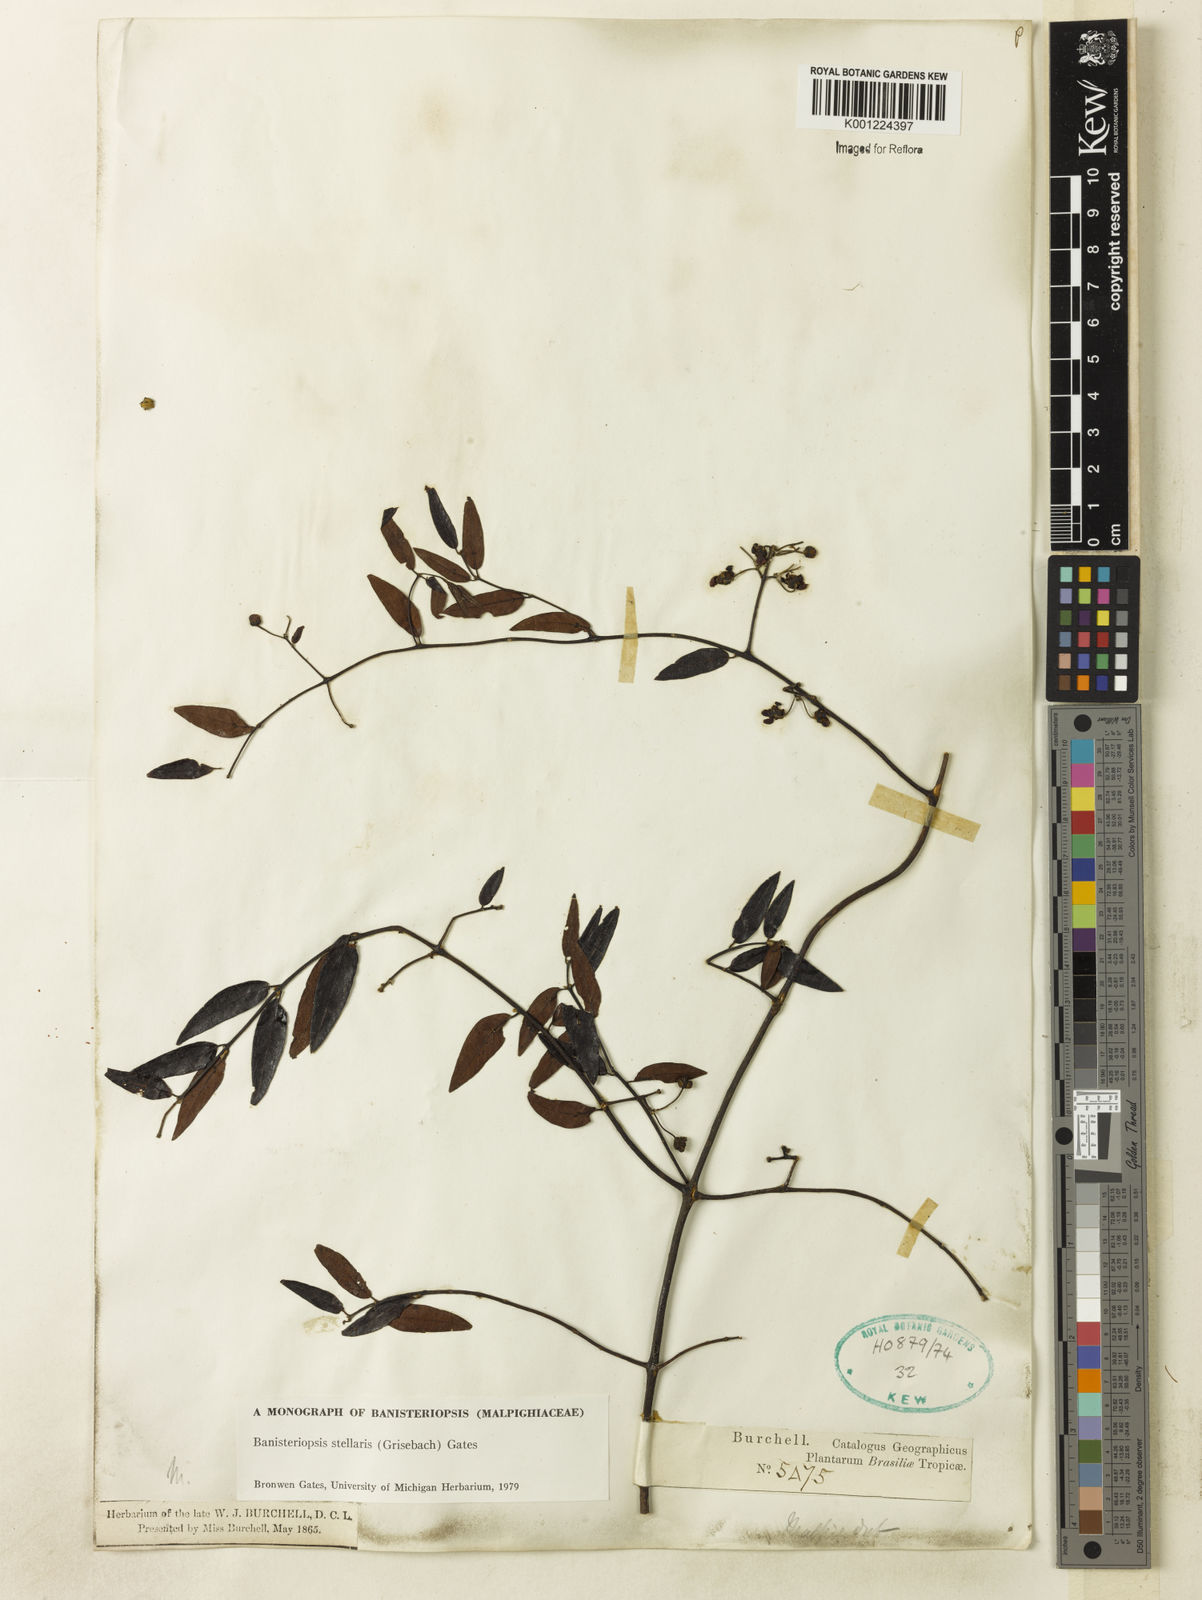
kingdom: Plantae
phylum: Tracheophyta
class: Magnoliopsida
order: Malpighiales
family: Malpighiaceae
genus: Banisteriopsis
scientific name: Banisteriopsis stellaris
